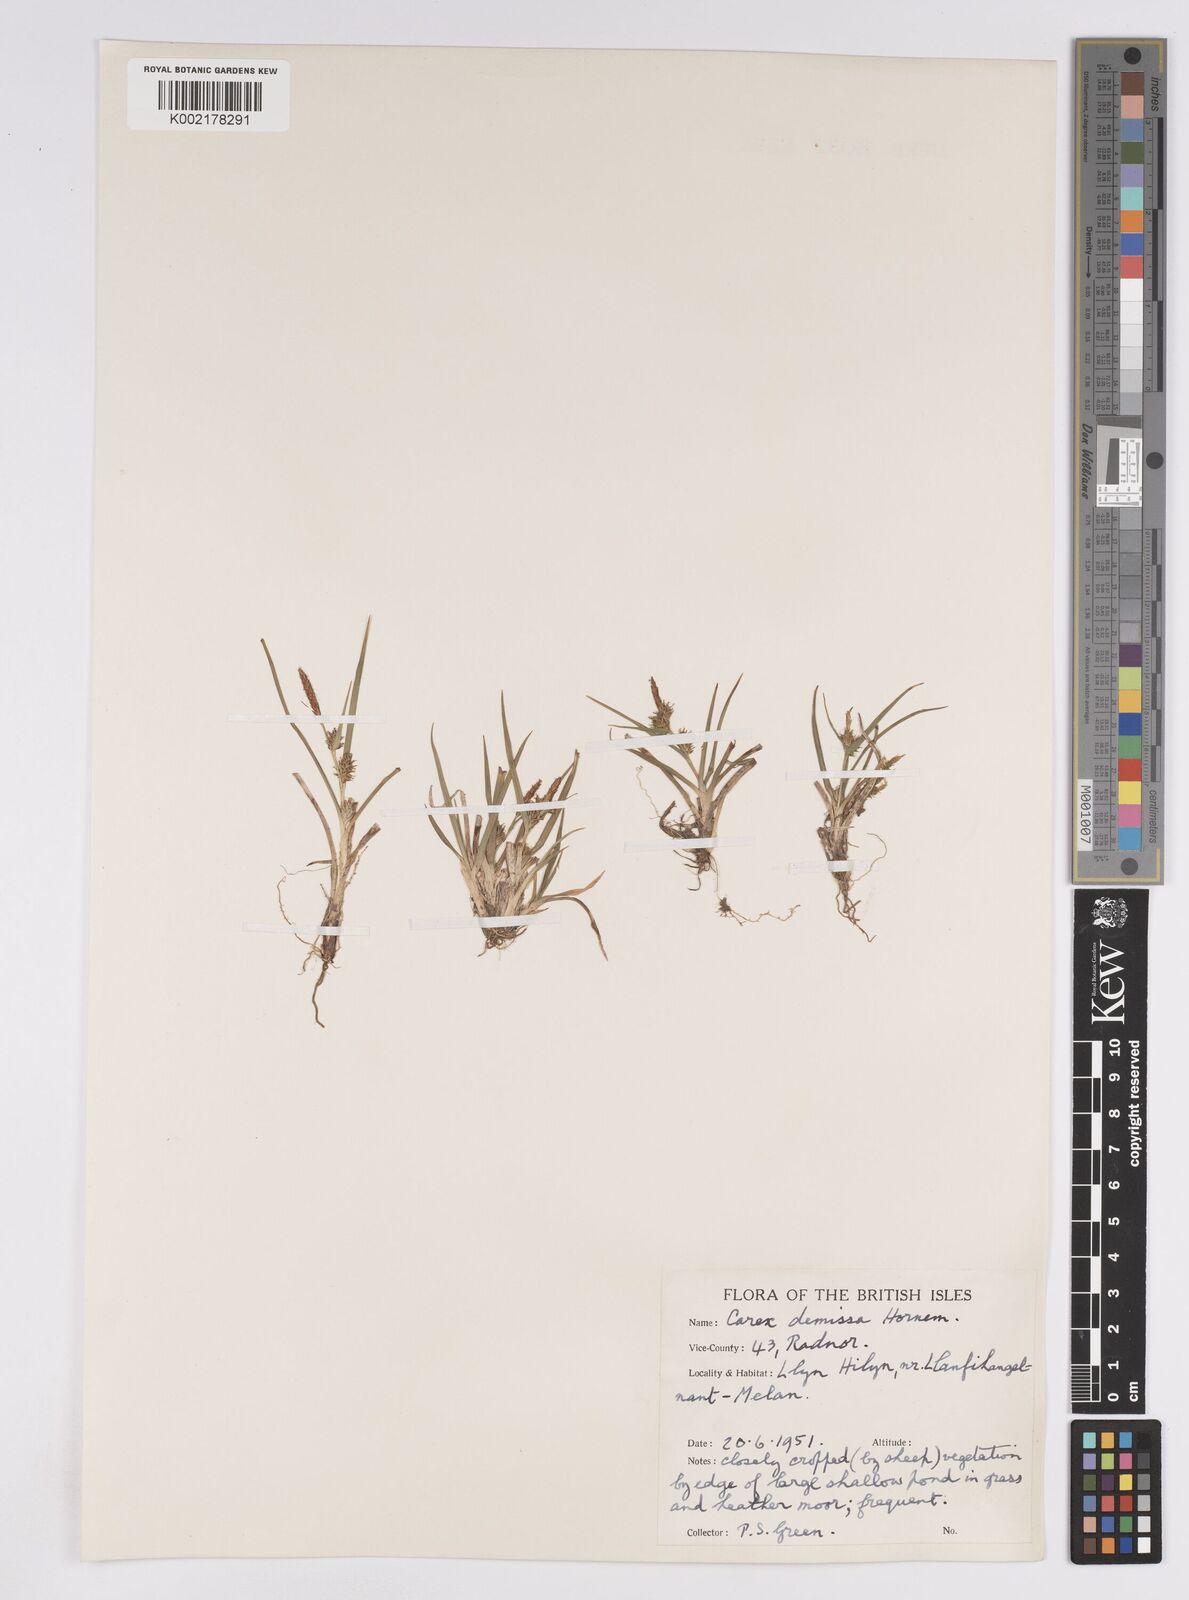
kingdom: Plantae
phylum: Tracheophyta
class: Liliopsida
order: Poales
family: Cyperaceae
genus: Carex
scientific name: Carex demissa
